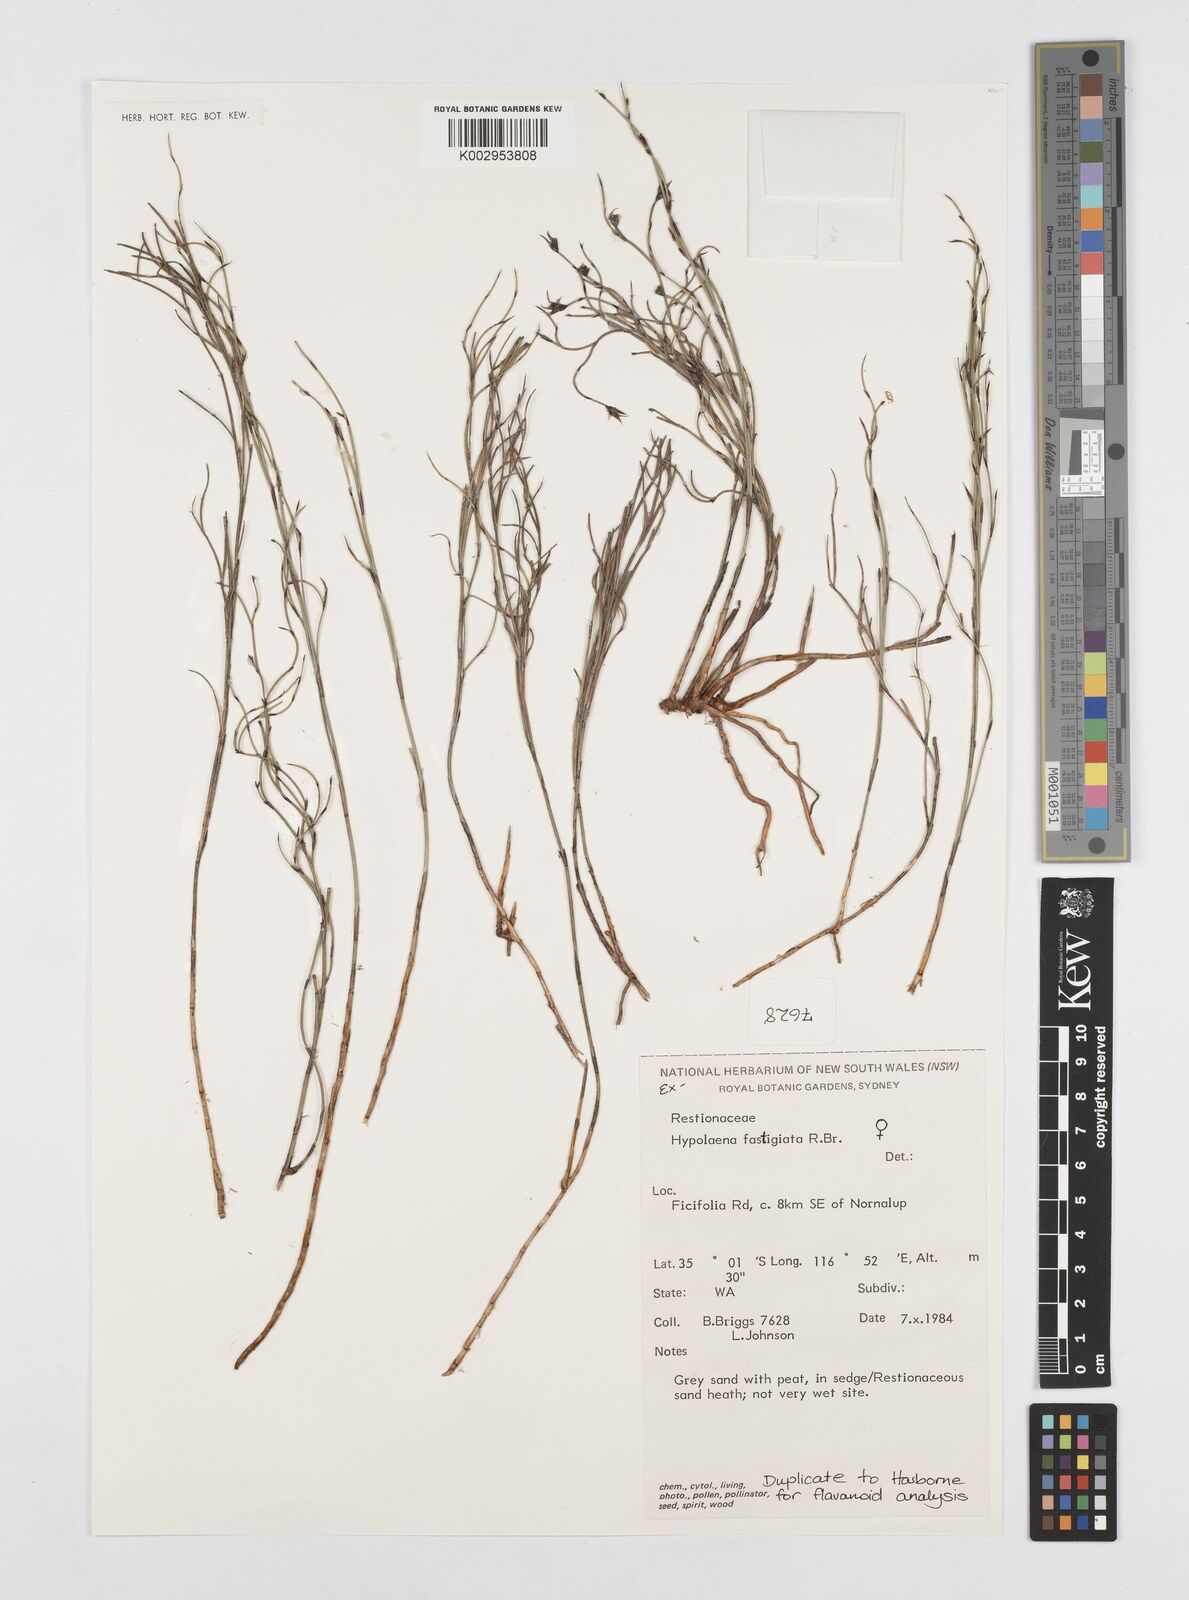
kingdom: Plantae
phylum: Tracheophyta
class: Liliopsida
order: Poales
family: Restionaceae
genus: Hypolaena
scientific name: Hypolaena fastigiata
